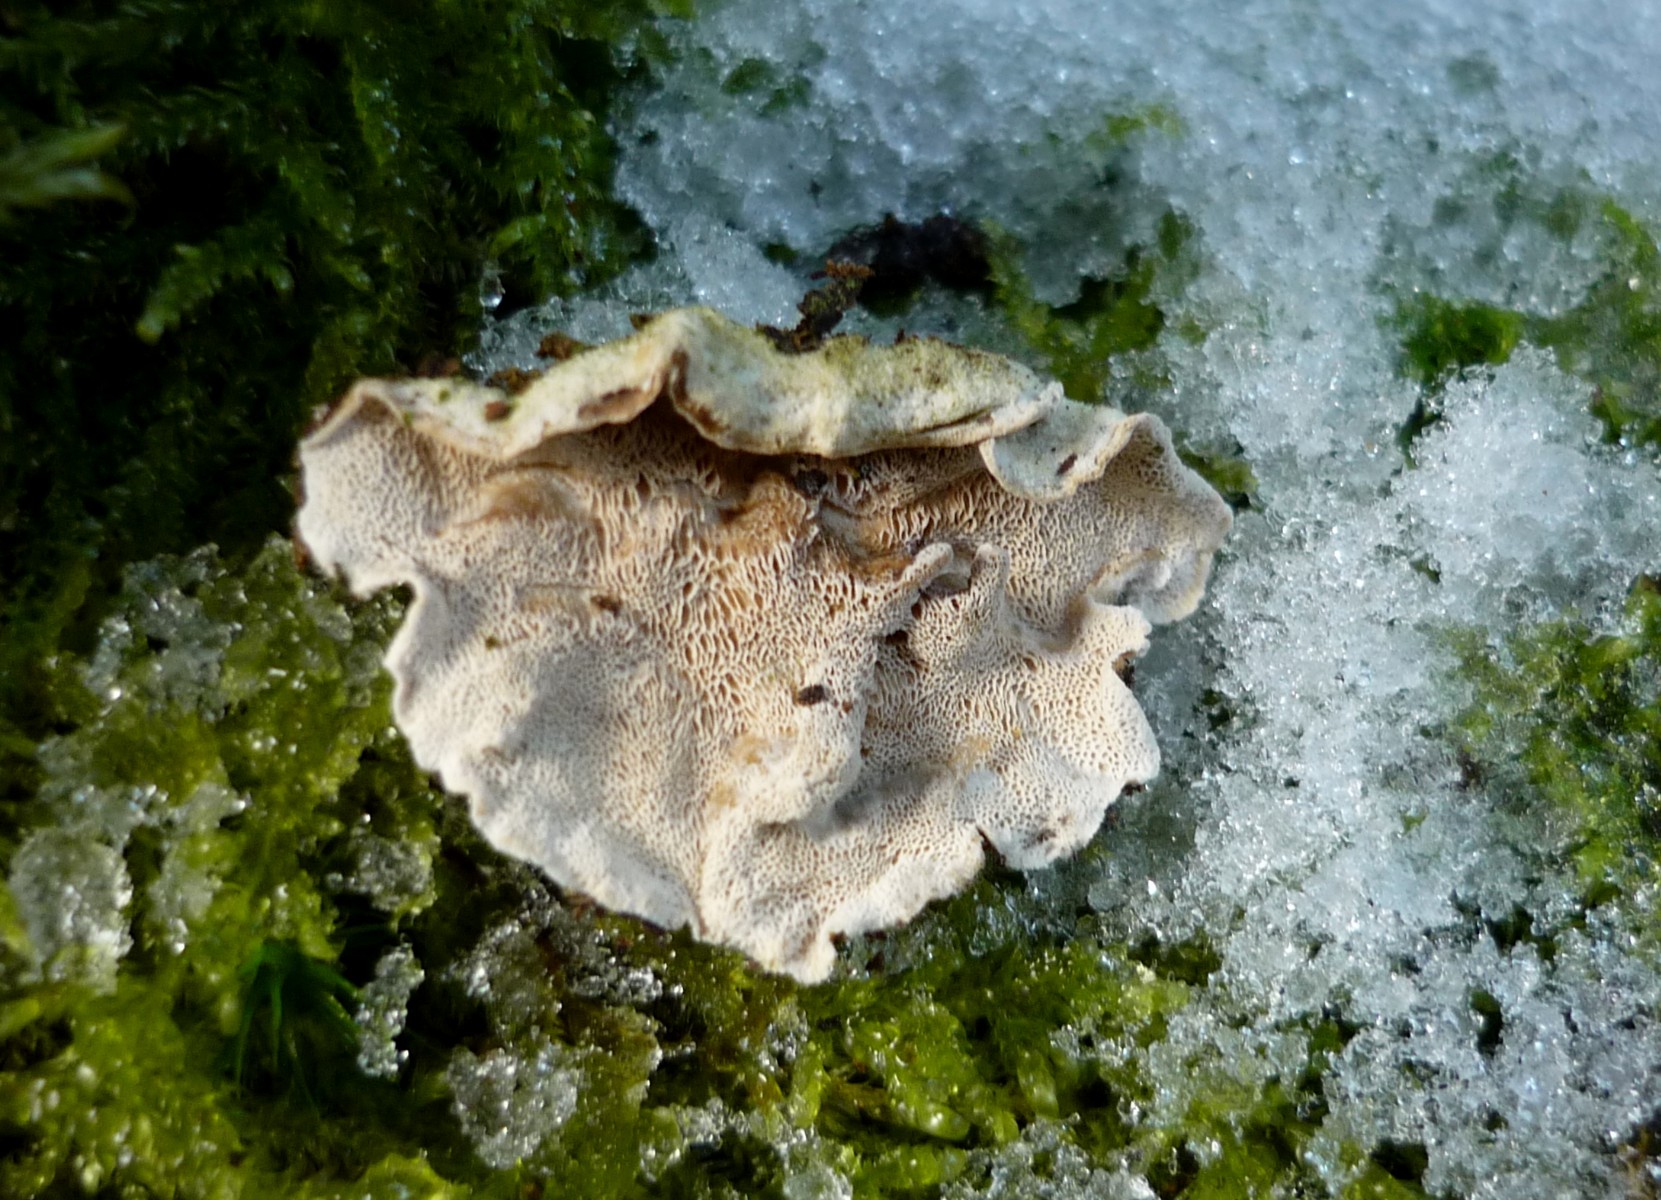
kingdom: Fungi
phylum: Basidiomycota
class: Agaricomycetes
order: Polyporales
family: Incrustoporiaceae
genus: Skeletocutis
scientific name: Skeletocutis carneogrisea
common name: rødgrå krystalporesvamp
